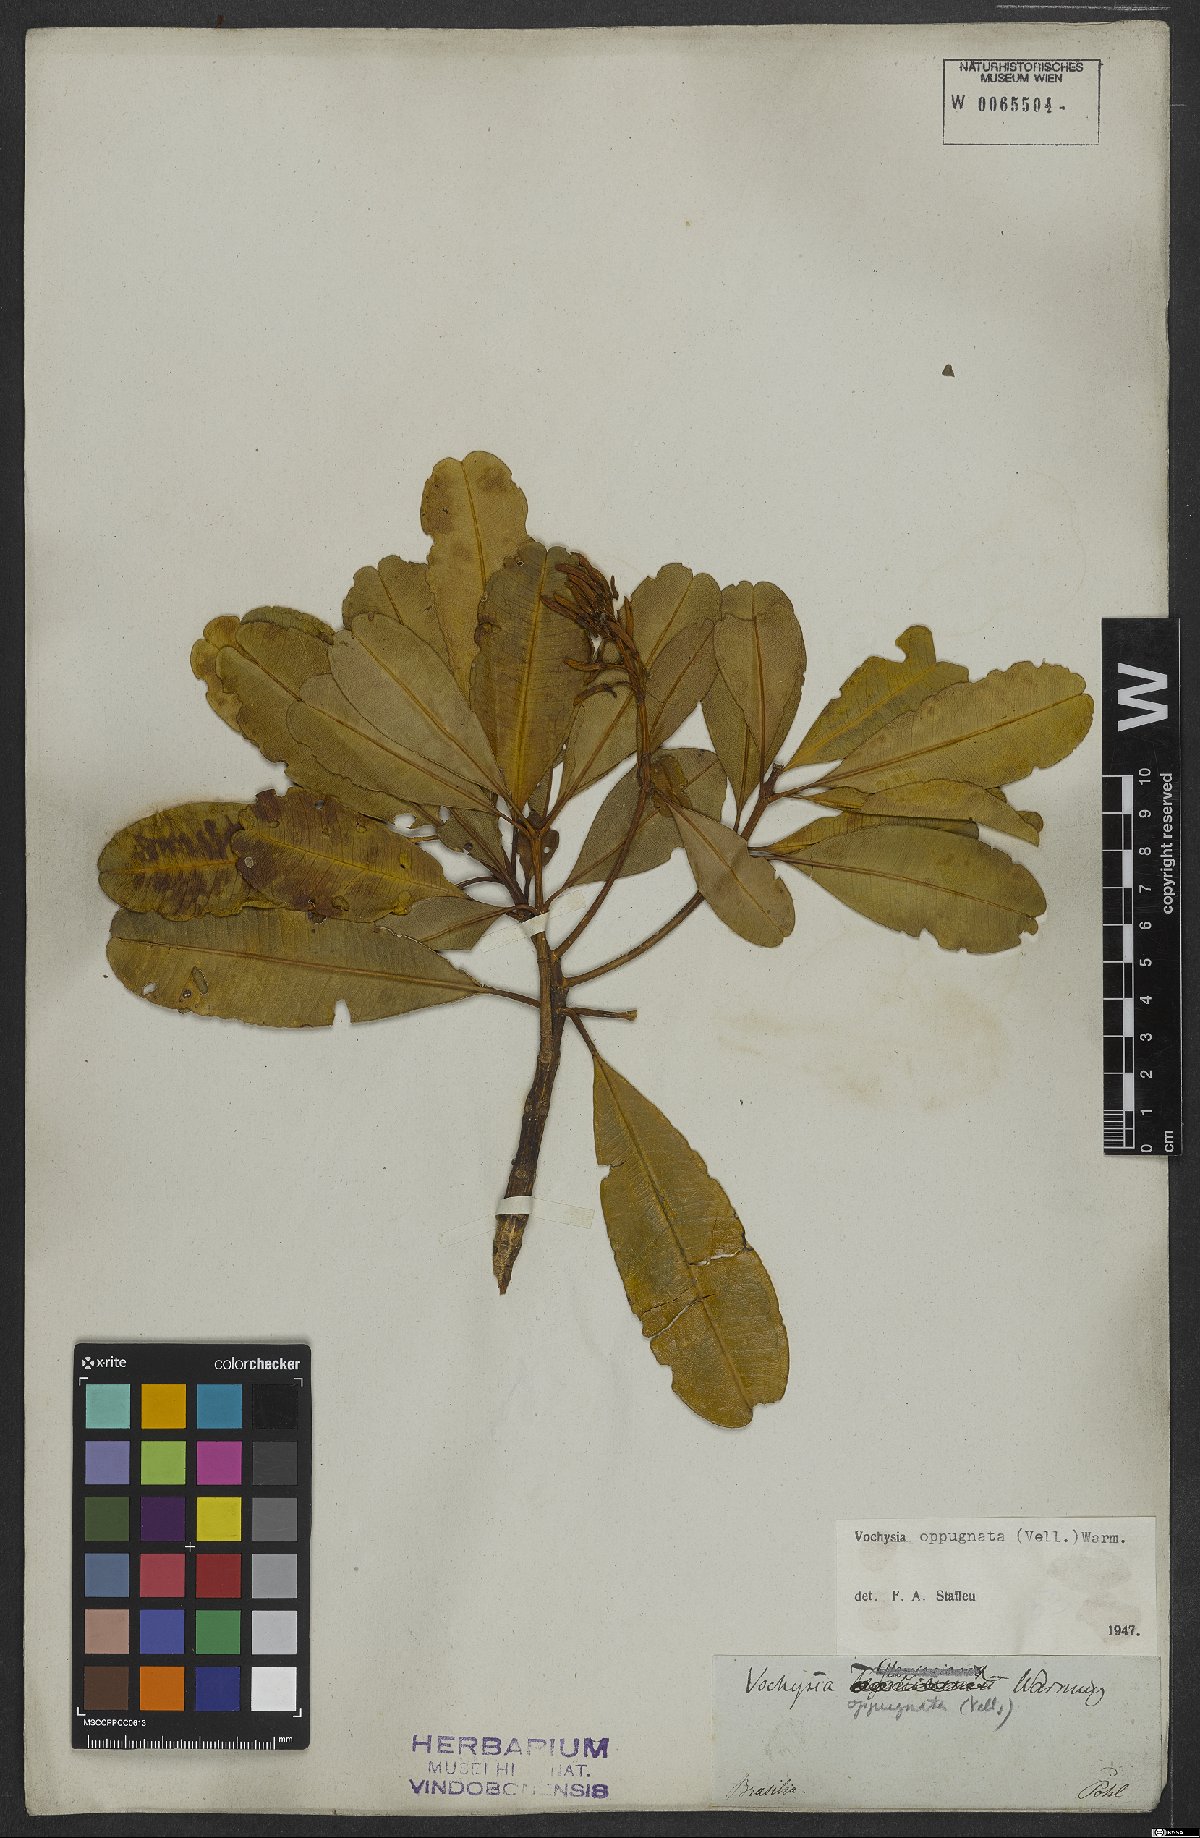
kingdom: Plantae
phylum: Tracheophyta
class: Magnoliopsida
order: Myrtales
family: Vochysiaceae
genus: Vochysia
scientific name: Vochysia oppugnata
